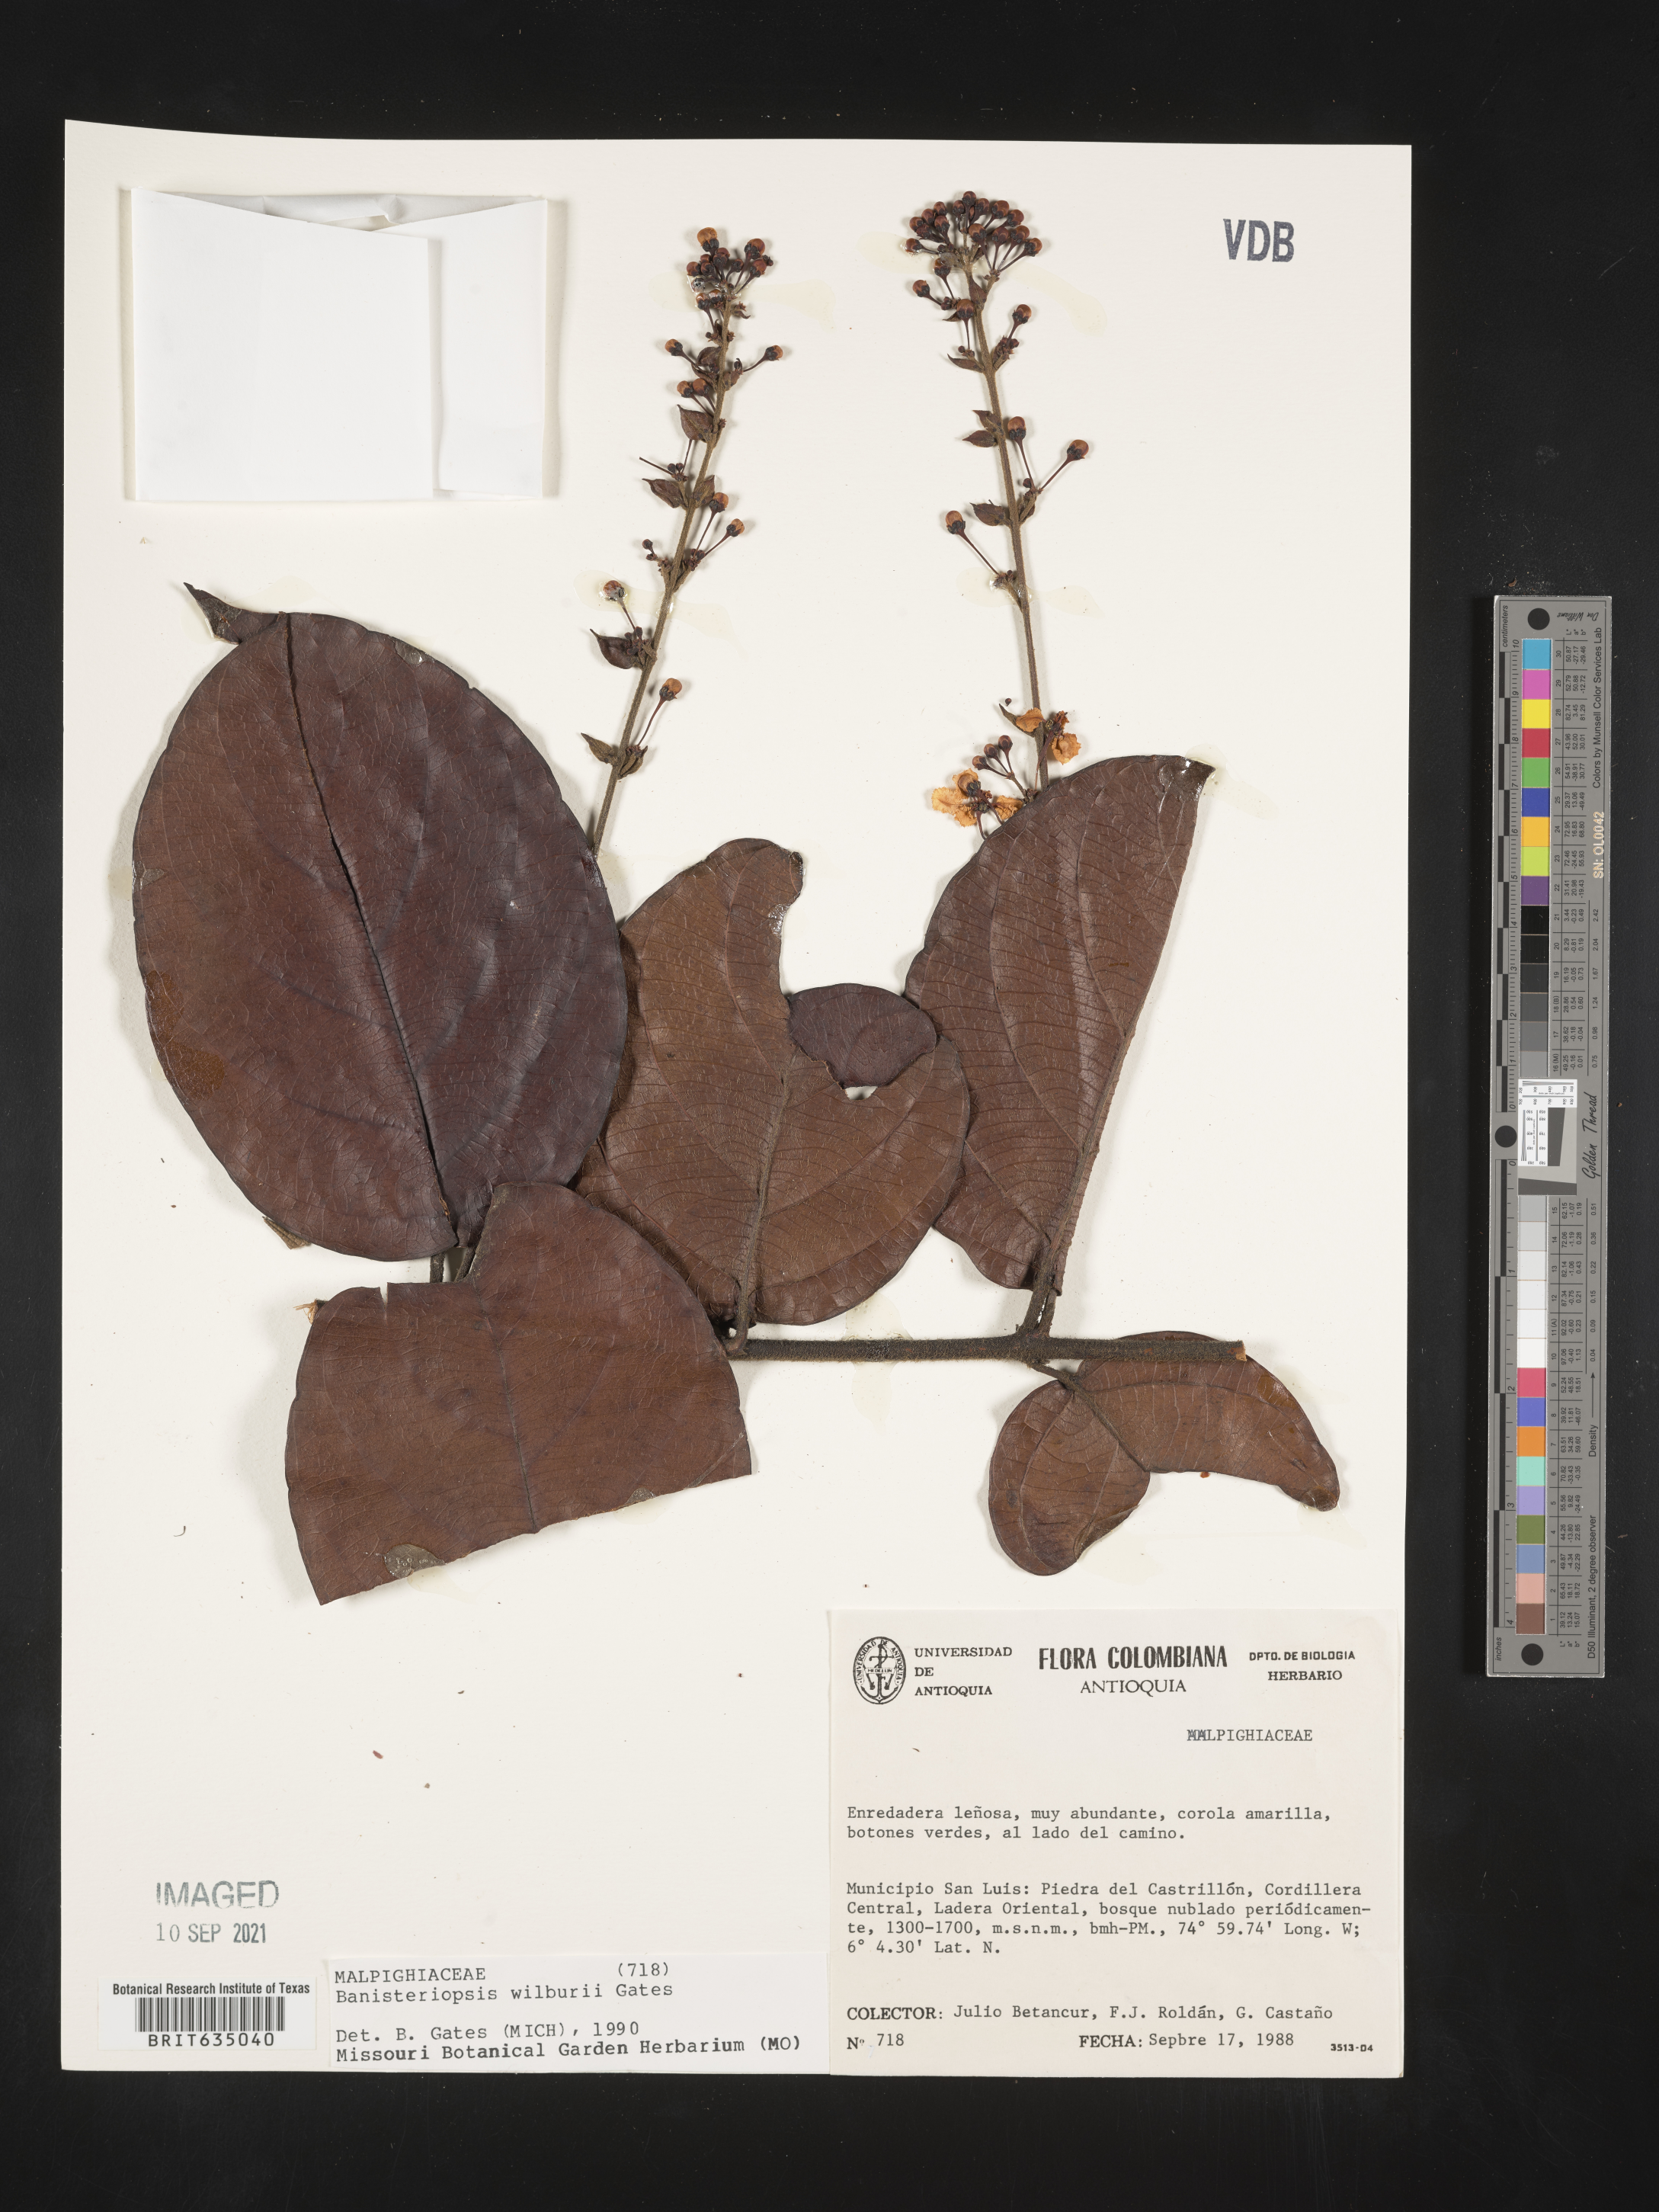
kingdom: Plantae
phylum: Tracheophyta
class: Magnoliopsida
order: Malpighiales
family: Malpighiaceae
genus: Banisteriopsis
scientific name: Banisteriopsis
